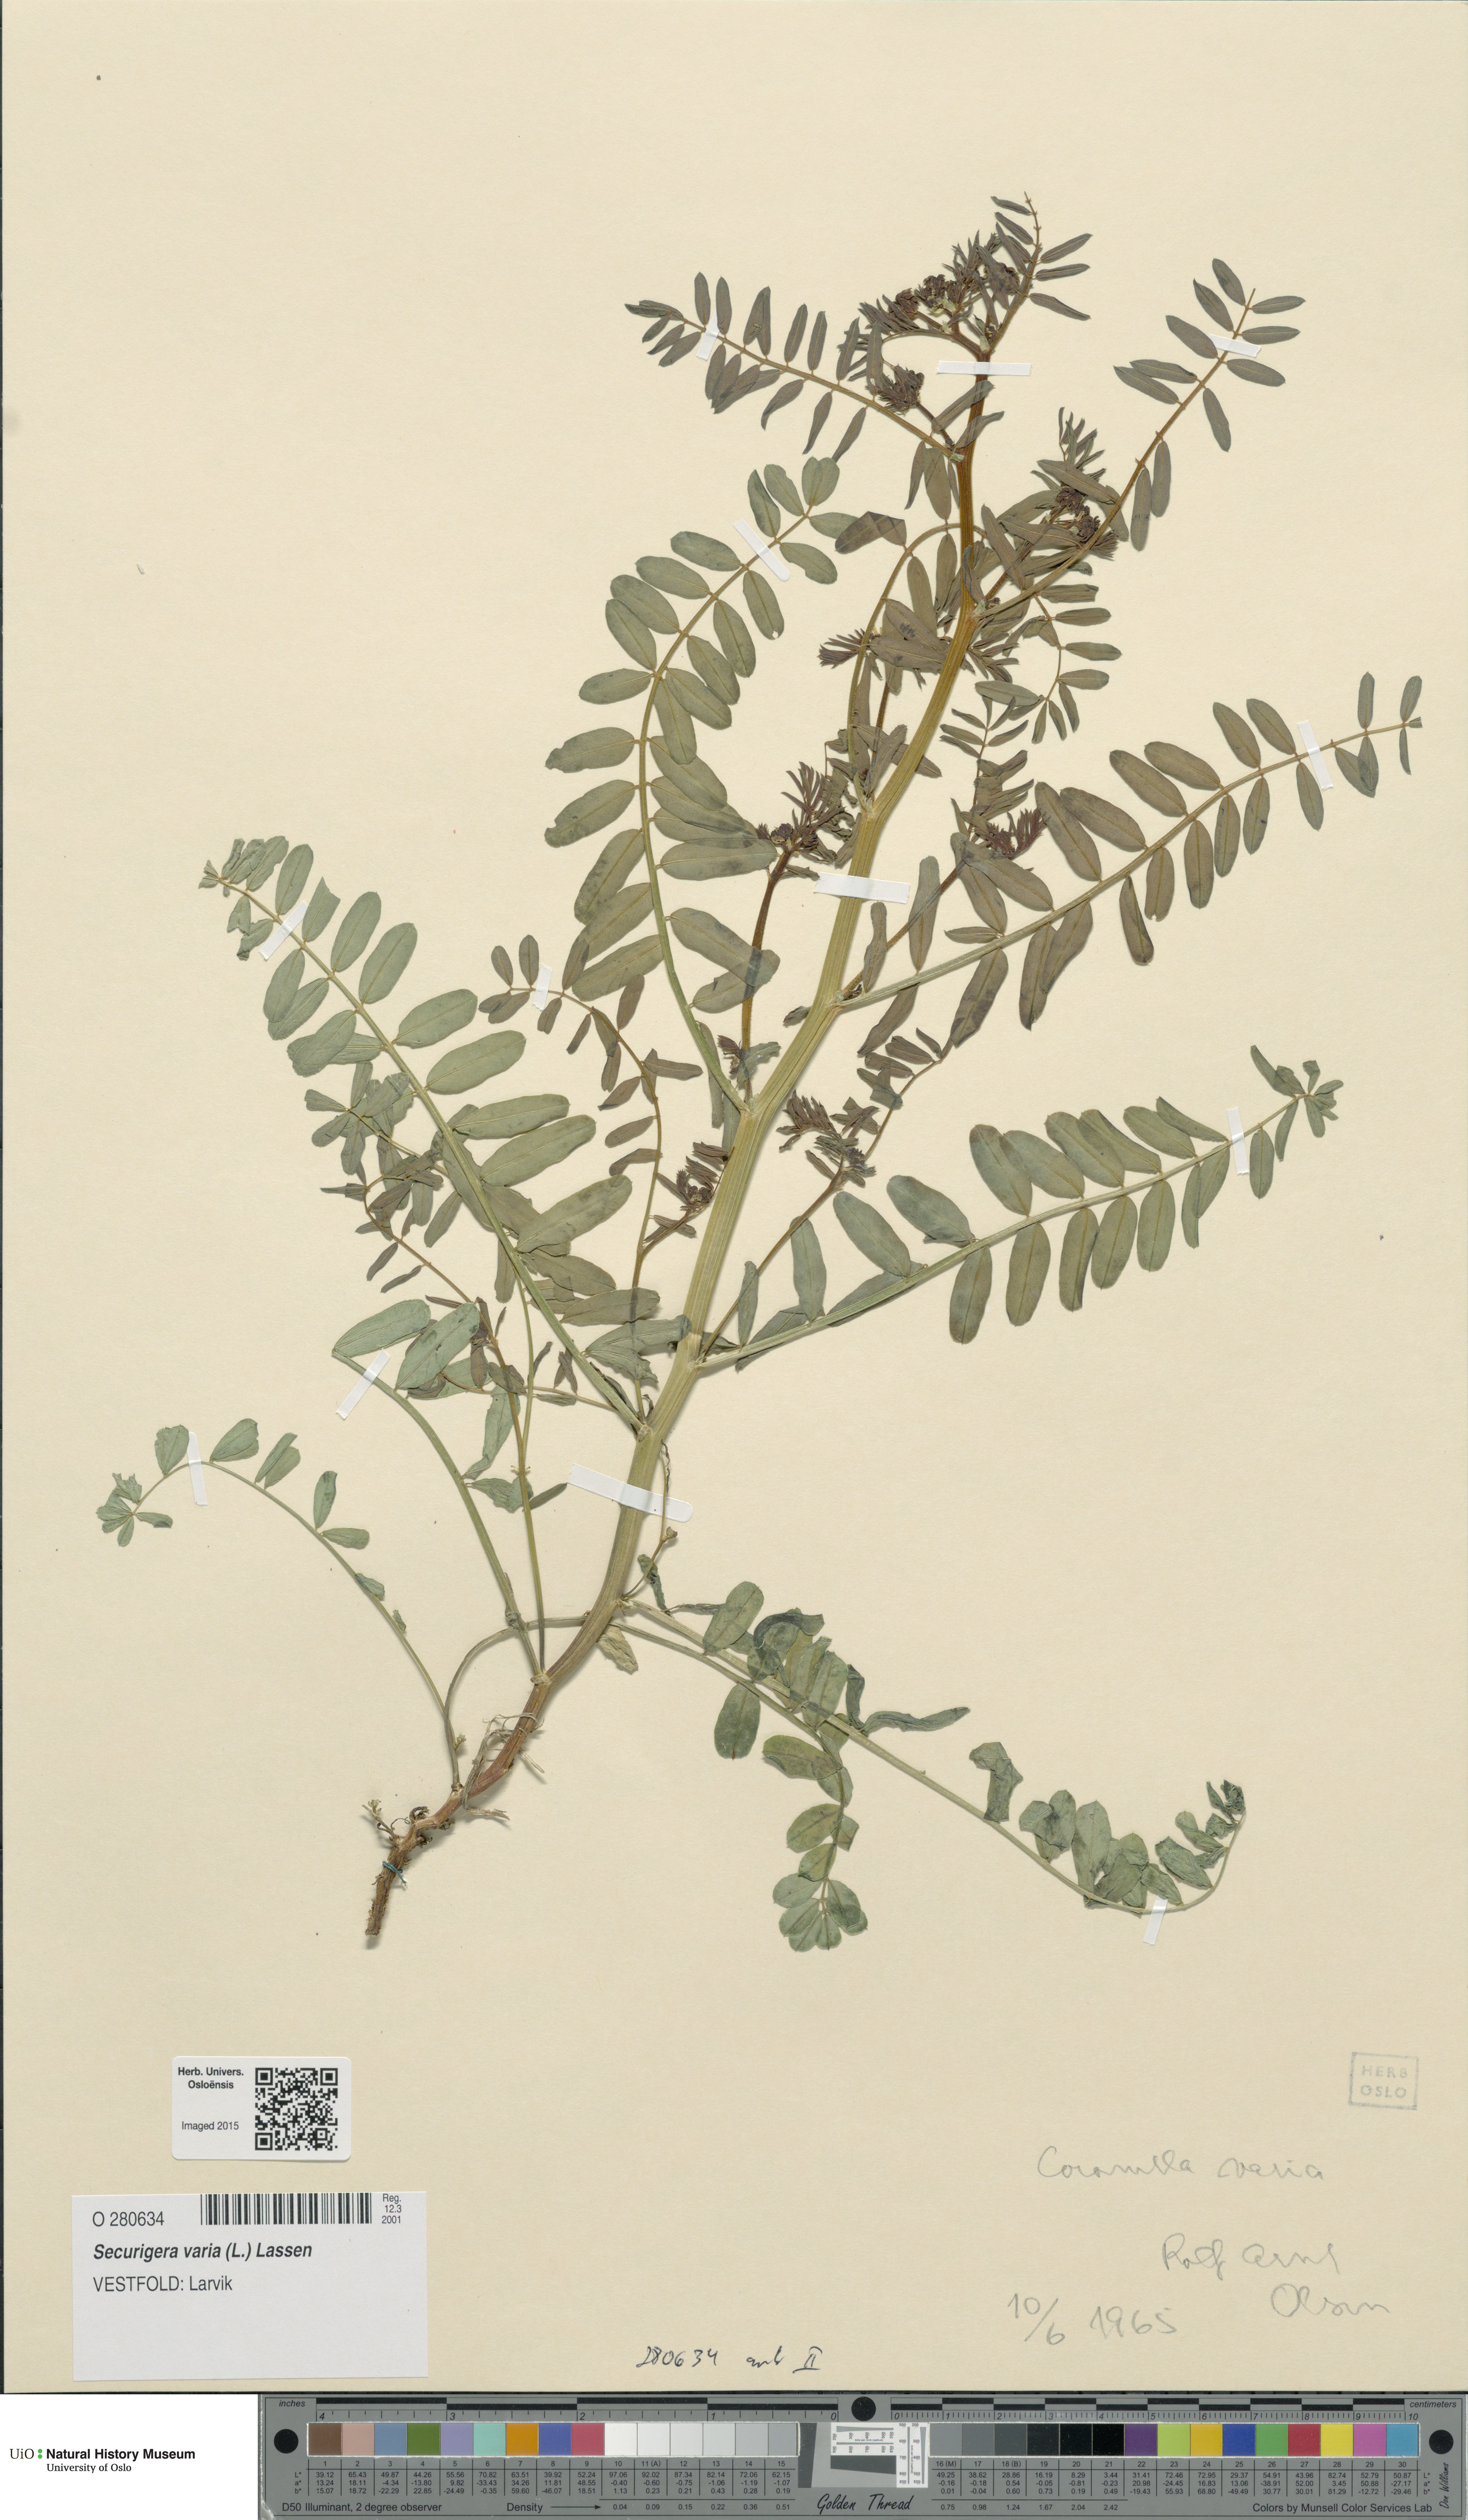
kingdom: Plantae
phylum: Tracheophyta
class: Magnoliopsida
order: Fabales
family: Fabaceae
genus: Coronilla
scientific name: Coronilla varia
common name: Crownvetch
